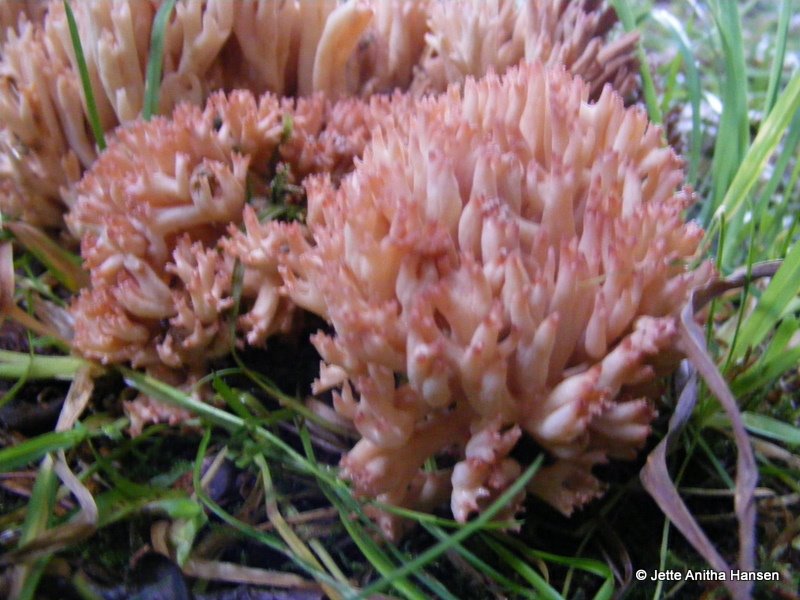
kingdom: Fungi
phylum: Basidiomycota
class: Agaricomycetes
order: Gomphales
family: Gomphaceae
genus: Ramaria
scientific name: Ramaria botrytis
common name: drue-koralsvamp
